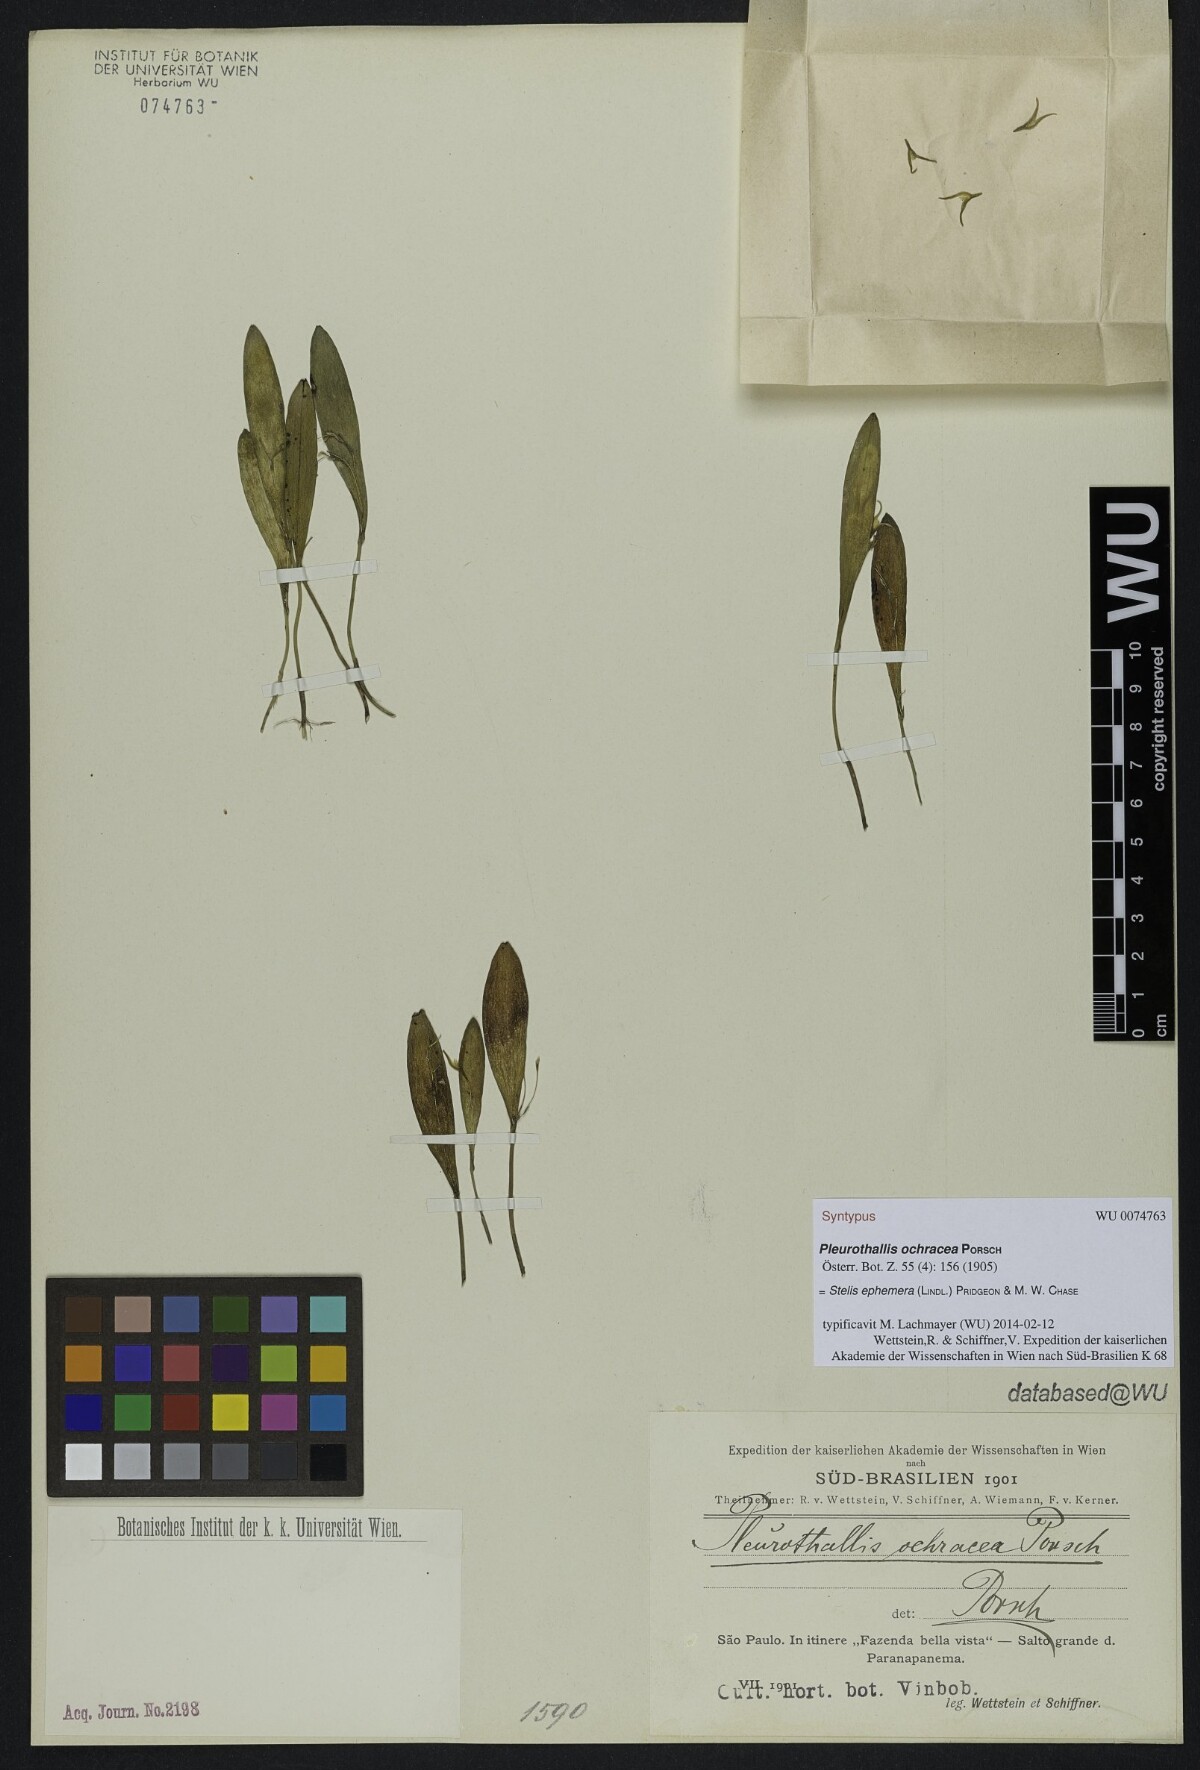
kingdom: Plantae
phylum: Tracheophyta
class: Liliopsida
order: Asparagales
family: Orchidaceae
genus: Pabstiella
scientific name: Pabstiella ephemera
